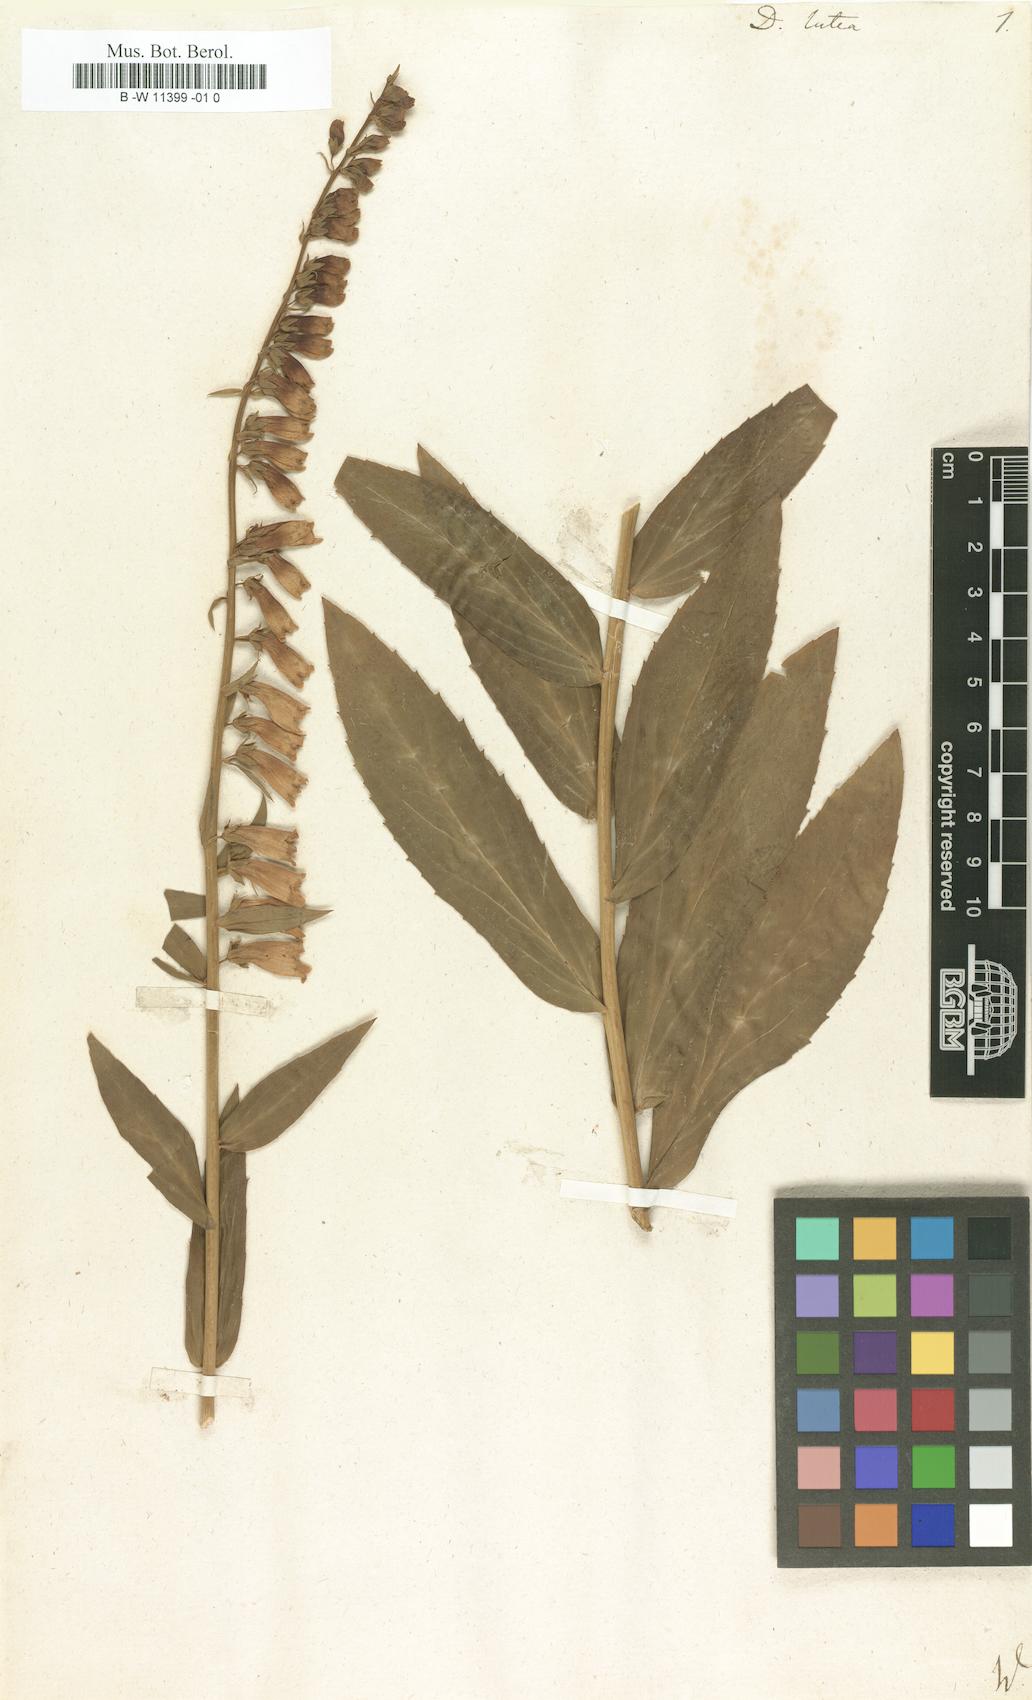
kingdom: Plantae
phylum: Tracheophyta
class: Magnoliopsida
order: Lamiales
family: Plantaginaceae
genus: Digitalis
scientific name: Digitalis lutea
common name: Straw foxglove
